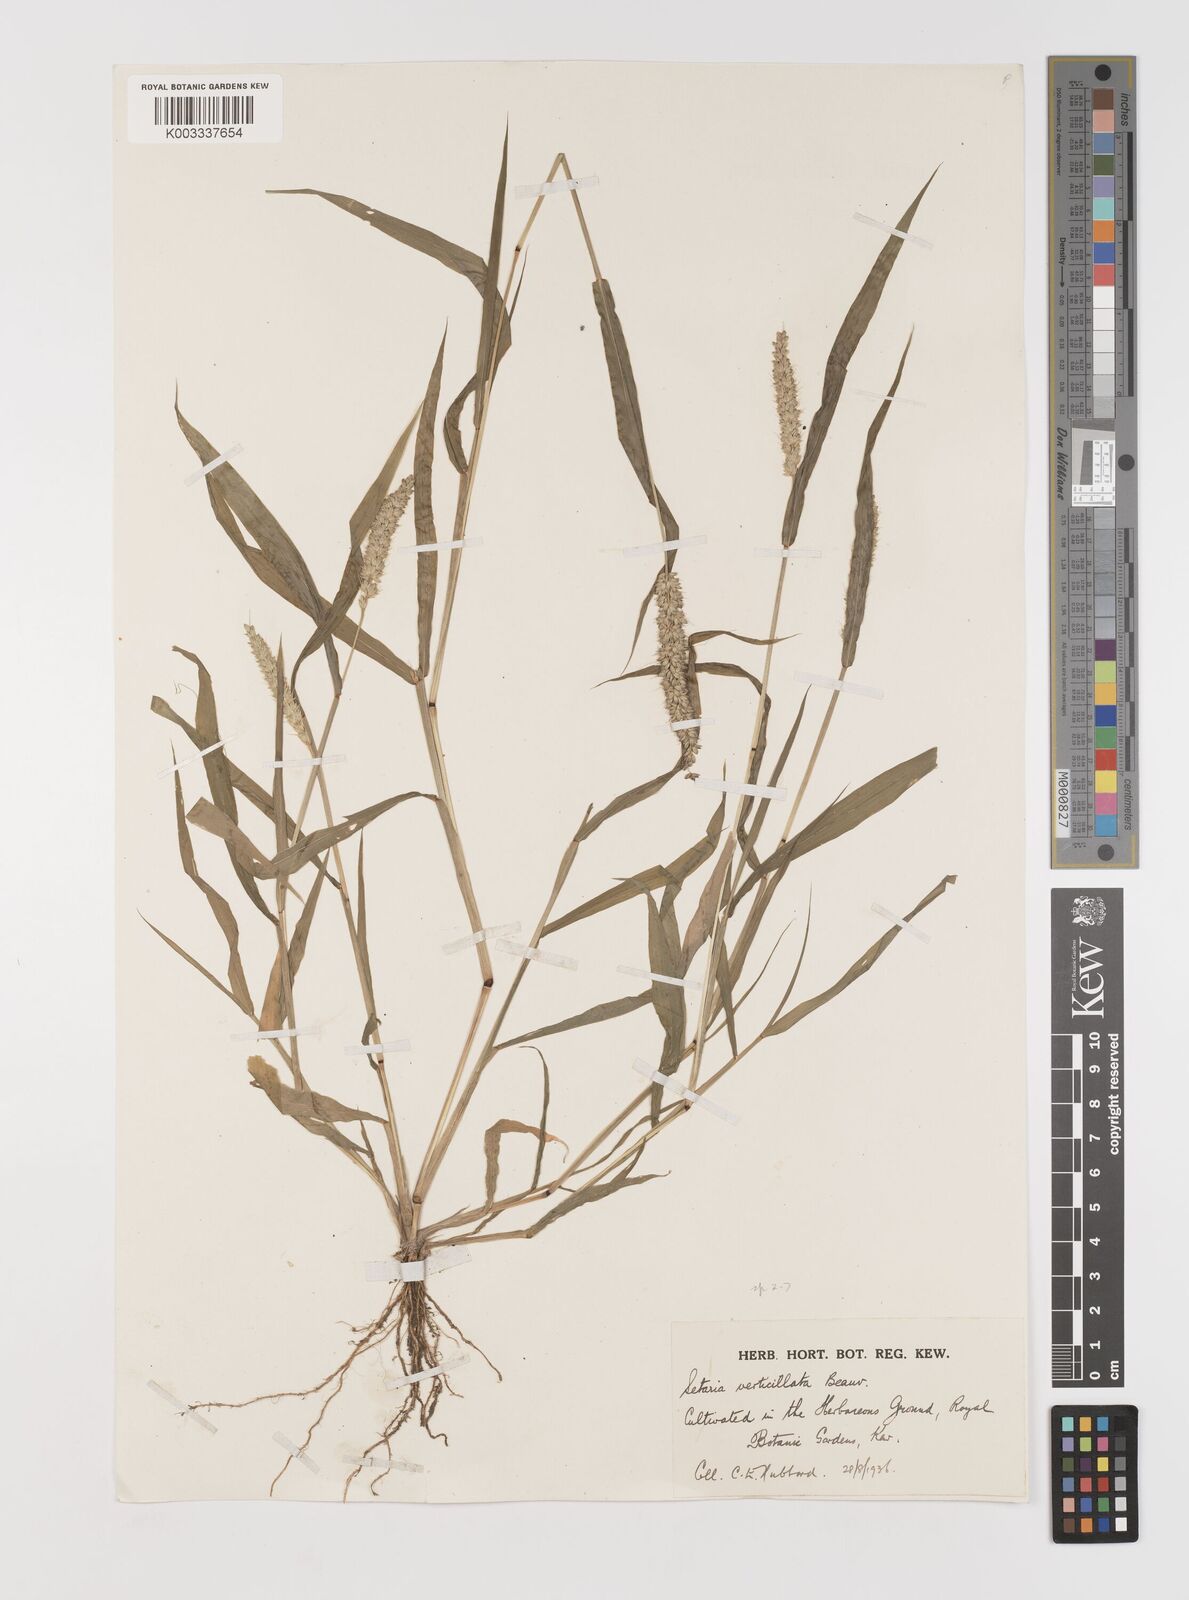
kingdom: Plantae
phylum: Tracheophyta
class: Liliopsida
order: Poales
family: Poaceae
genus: Setaria
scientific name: Setaria verticillata
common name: Hooked bristlegrass
